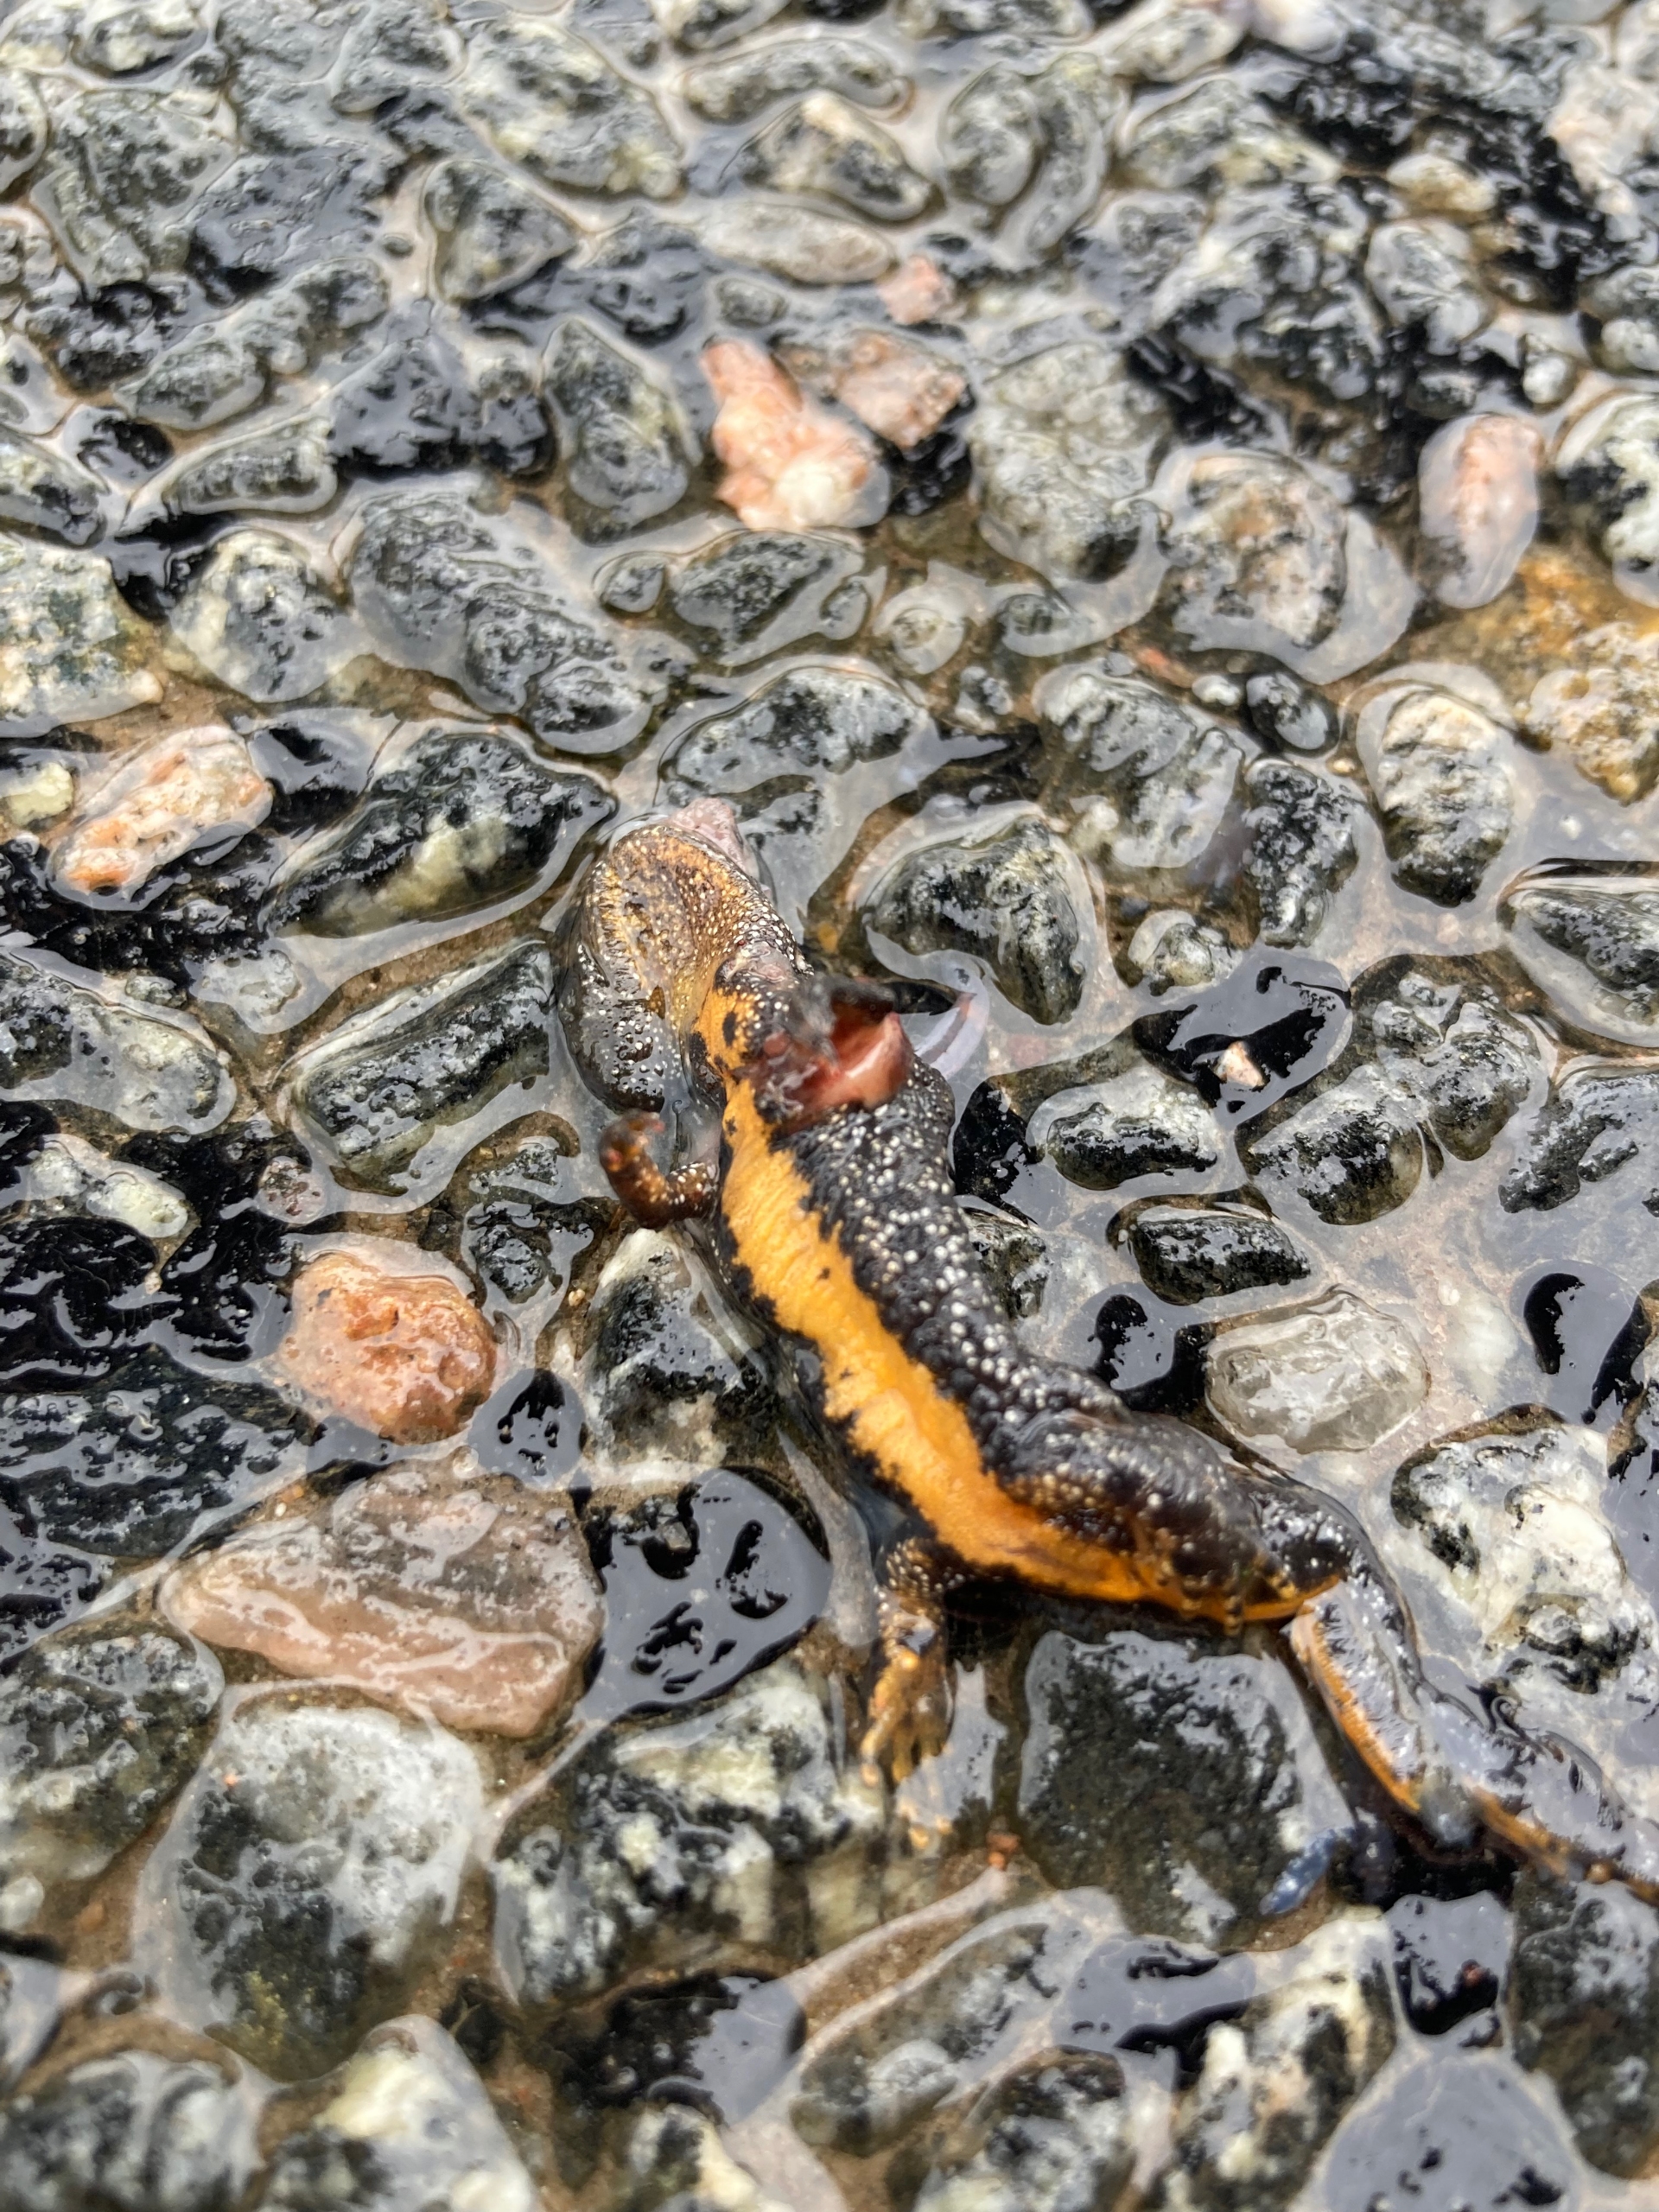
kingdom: Animalia
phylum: Chordata
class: Amphibia
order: Caudata
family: Salamandridae
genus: Triturus
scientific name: Triturus cristatus
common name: Stor vandsalamander
